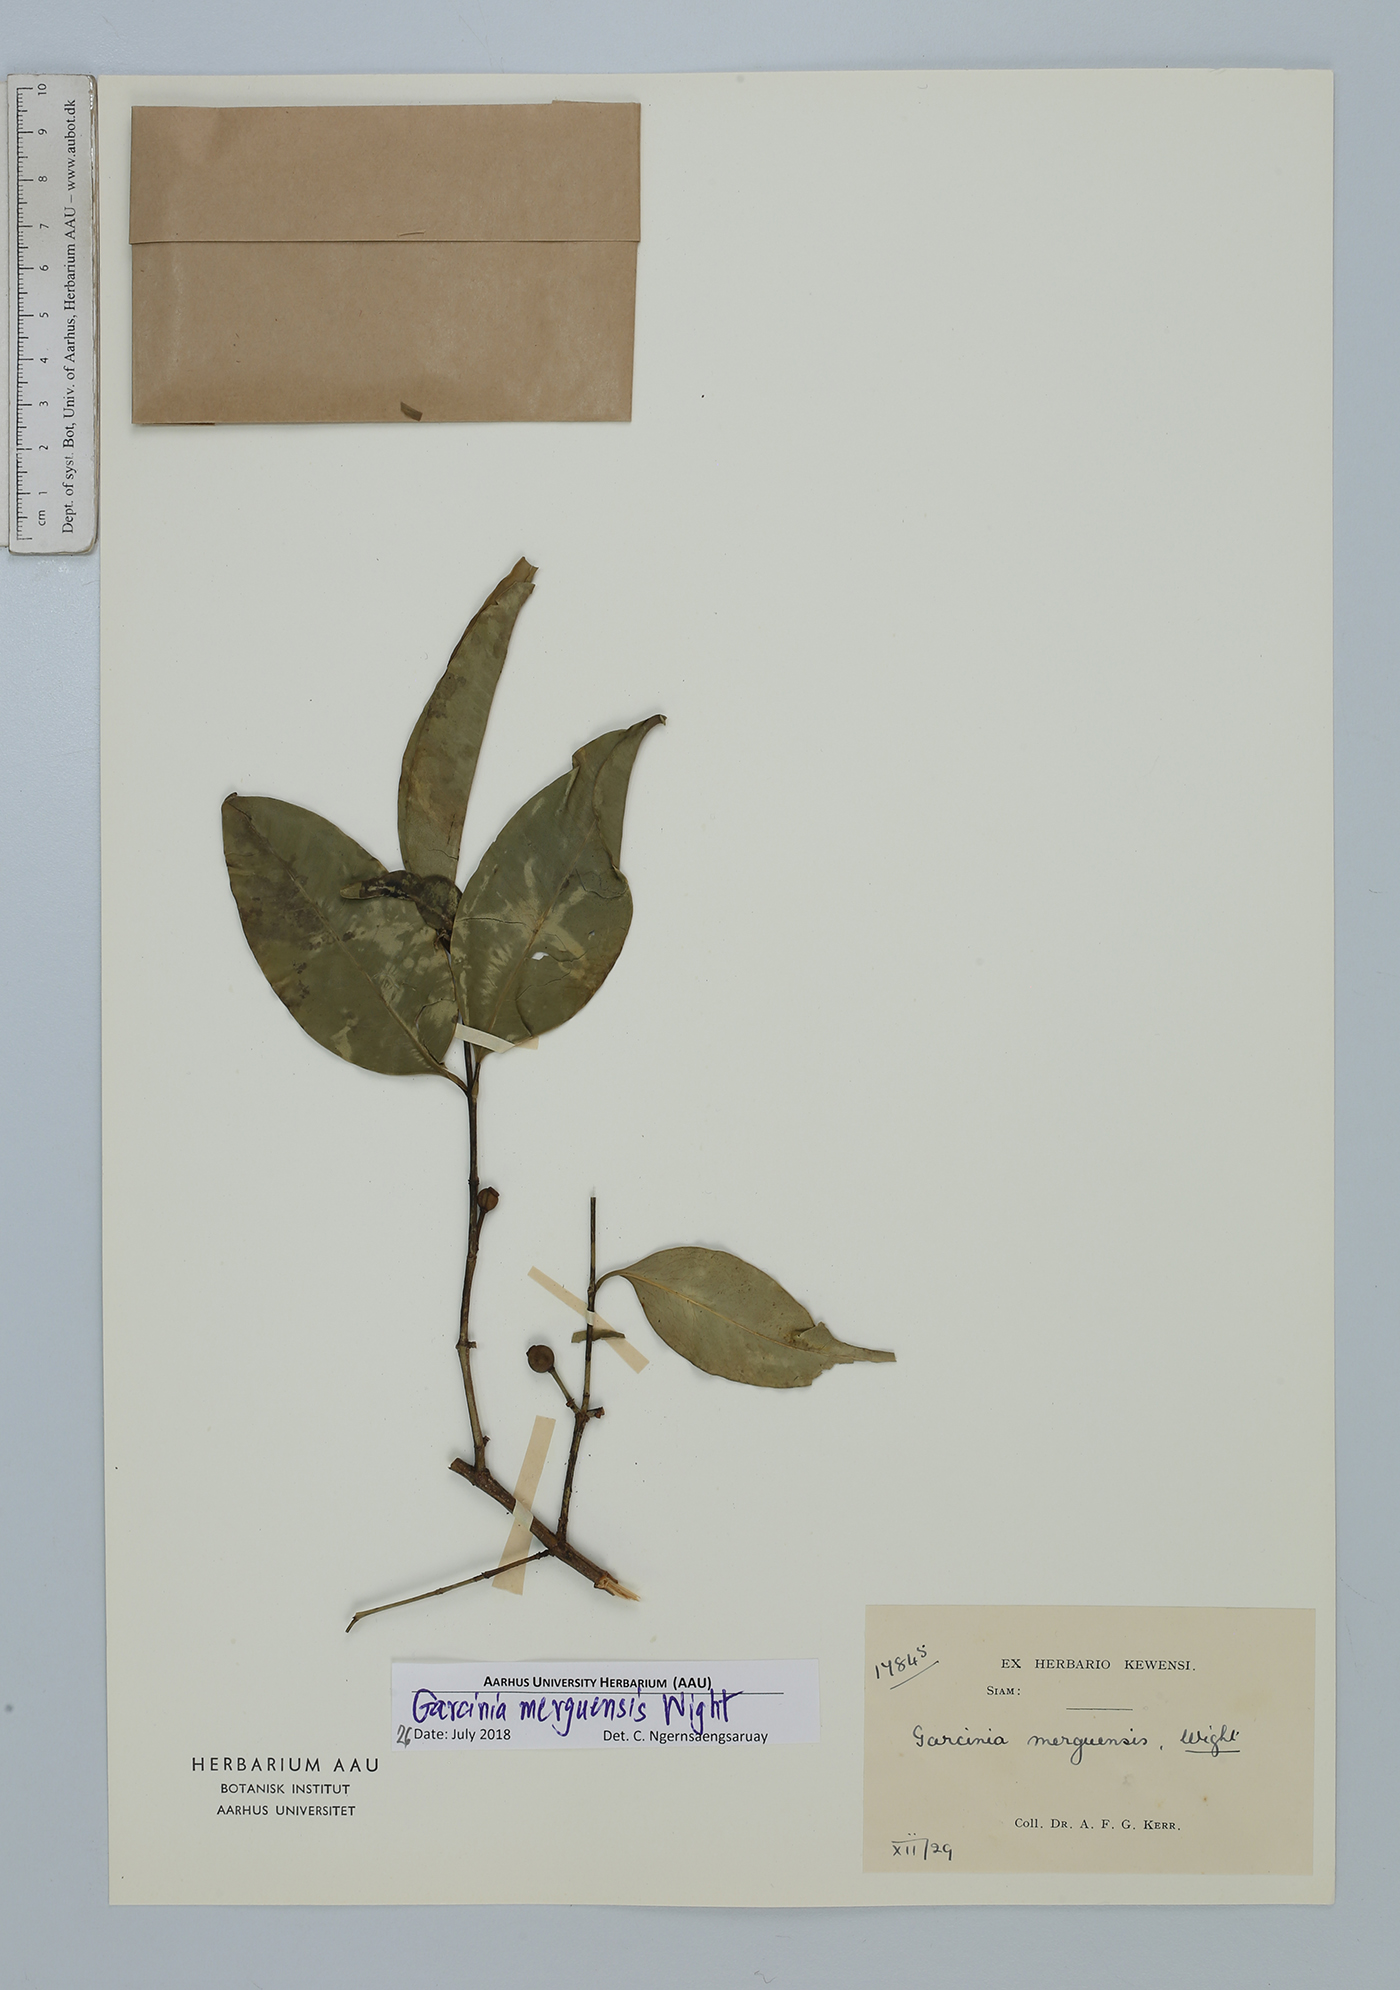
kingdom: Plantae
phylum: Tracheophyta
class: Magnoliopsida
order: Malpighiales
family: Clusiaceae
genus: Garcinia
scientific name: Garcinia merguensis
